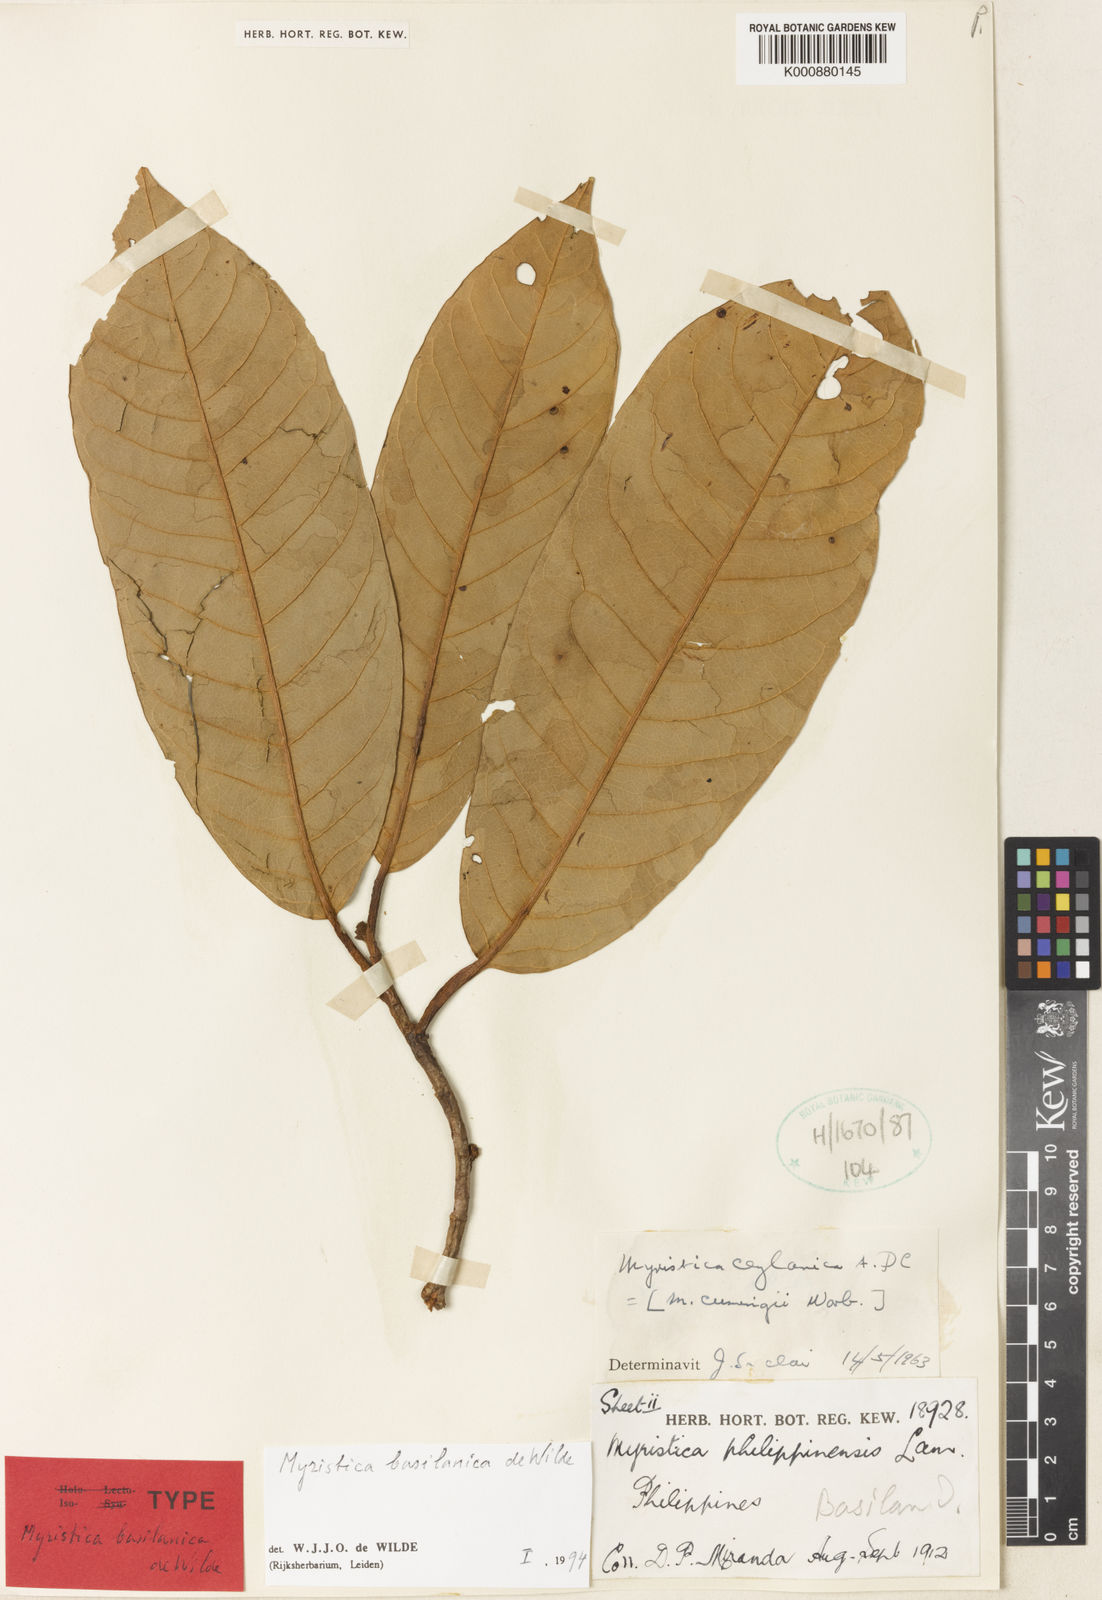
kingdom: Plantae
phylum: Tracheophyta
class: Magnoliopsida
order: Magnoliales
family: Myristicaceae
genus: Myristica
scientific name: Myristica basilanica
